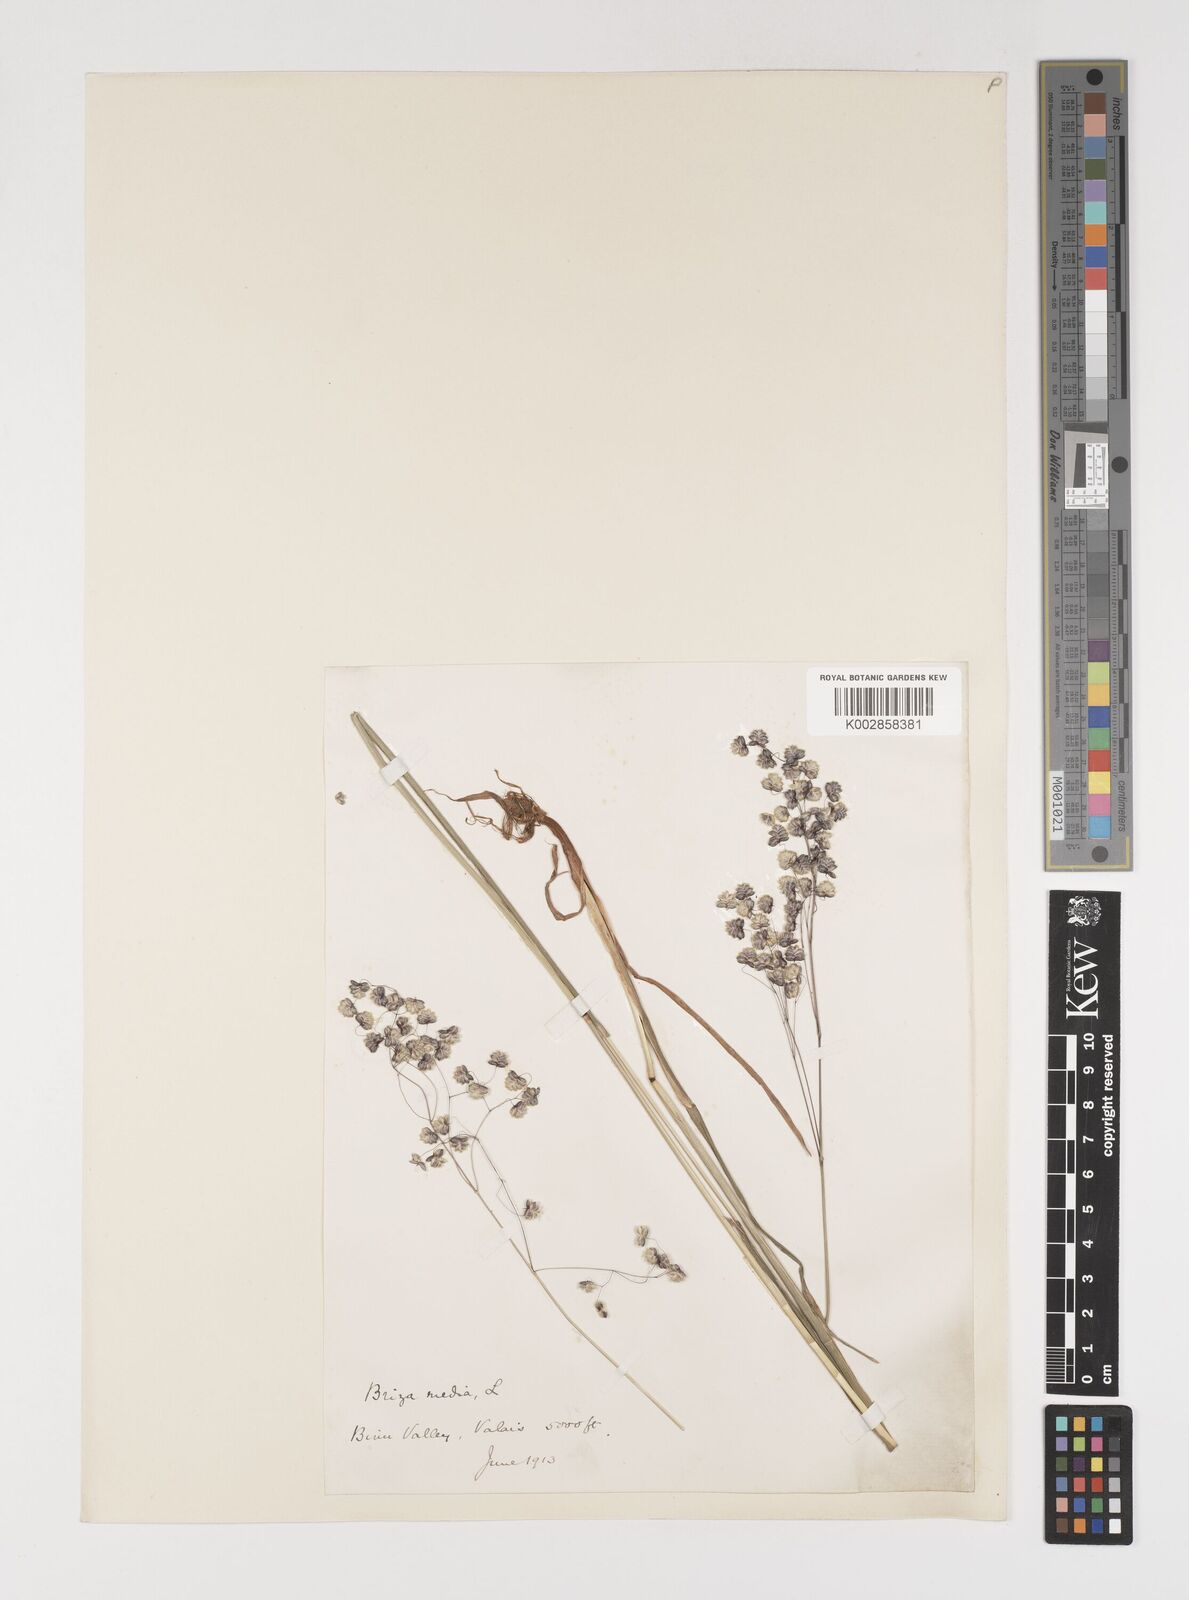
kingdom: Plantae
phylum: Tracheophyta
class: Liliopsida
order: Poales
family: Poaceae
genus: Briza
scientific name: Briza media
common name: Quaking grass
